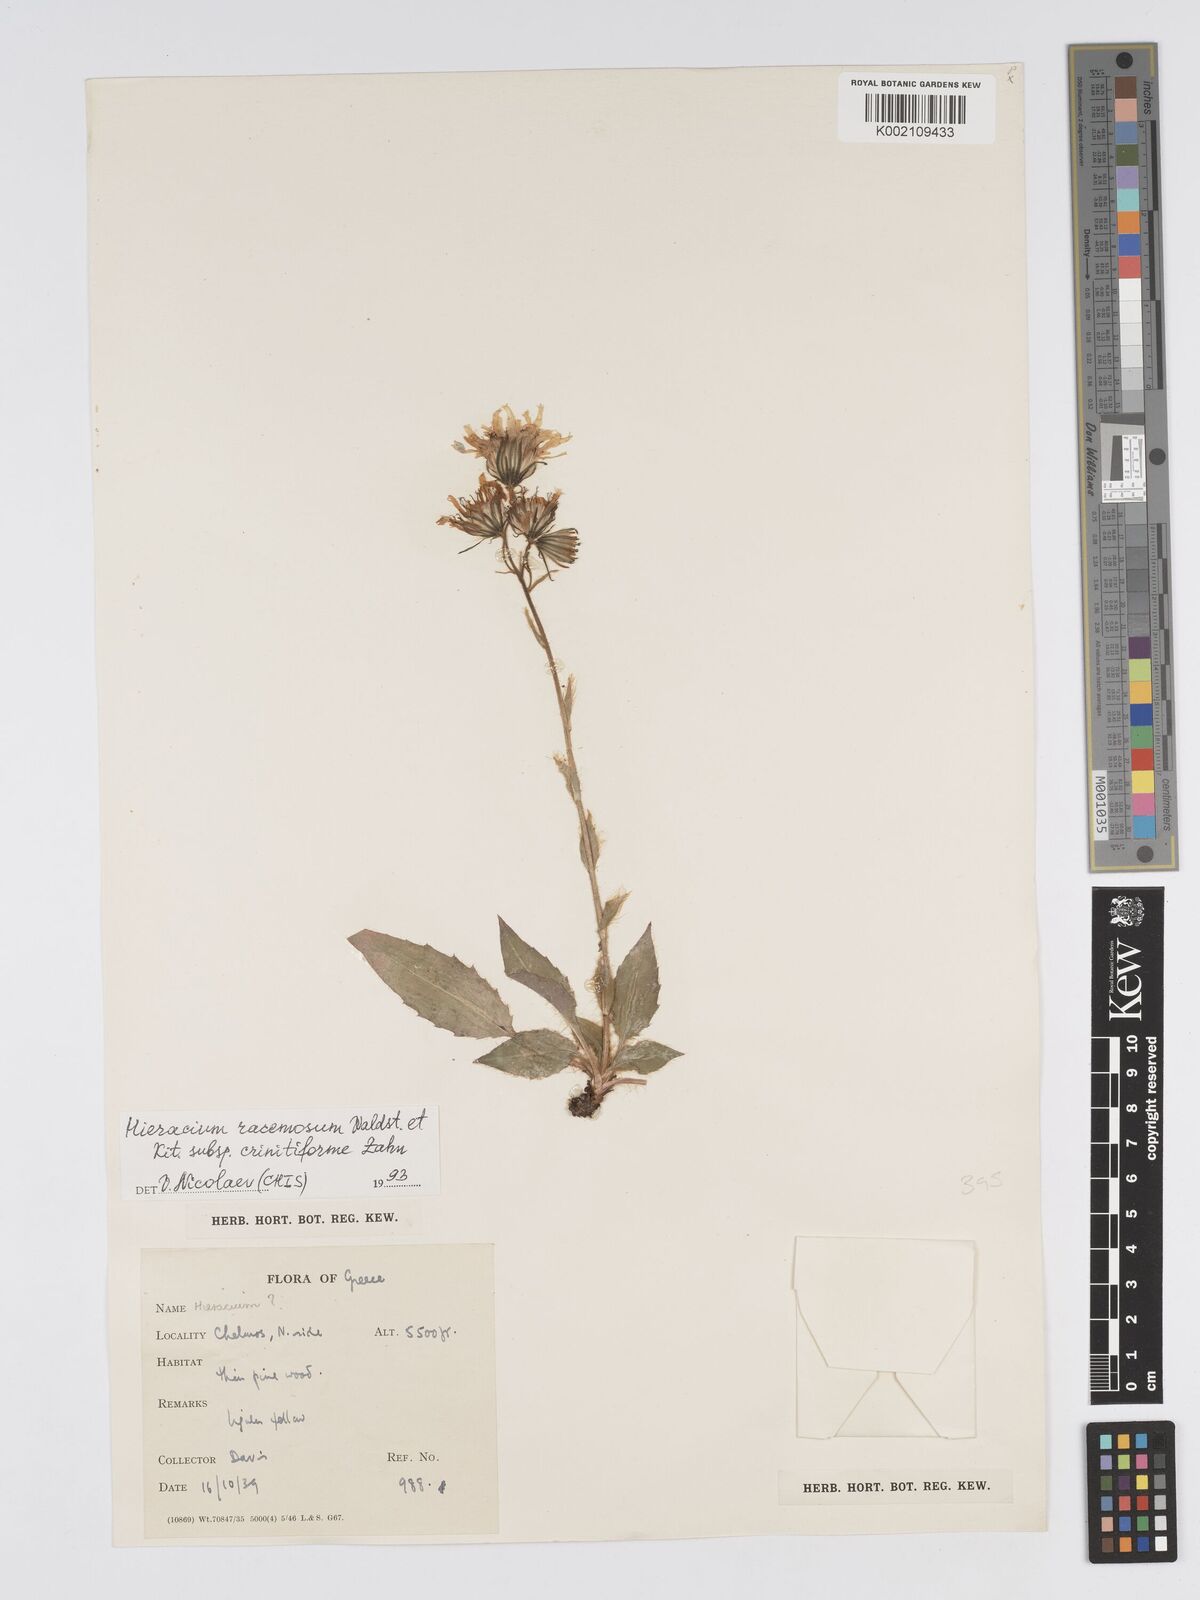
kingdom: Plantae
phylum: Tracheophyta
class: Magnoliopsida
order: Asterales
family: Asteraceae
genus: Hieracium
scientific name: Hieracium racemosum
